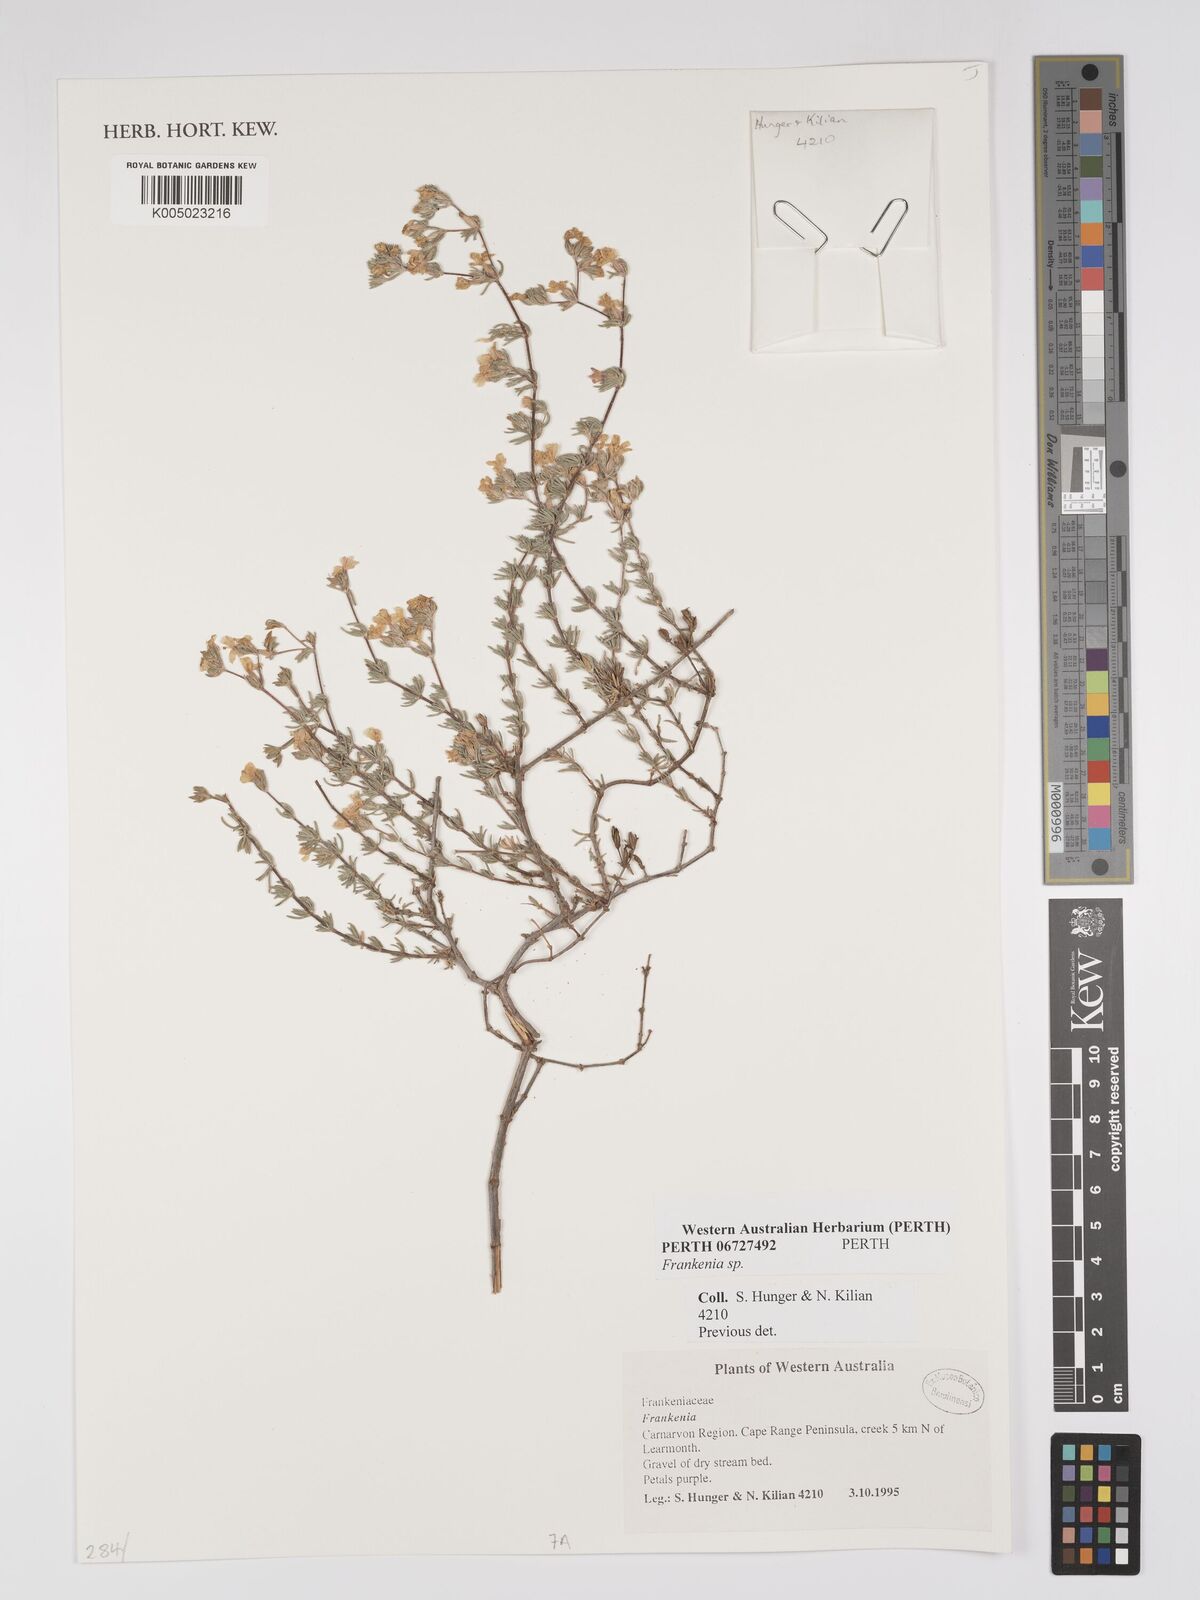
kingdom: Plantae
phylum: Tracheophyta
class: Magnoliopsida
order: Caryophyllales
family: Frankeniaceae
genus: Frankenia
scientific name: Frankenia
